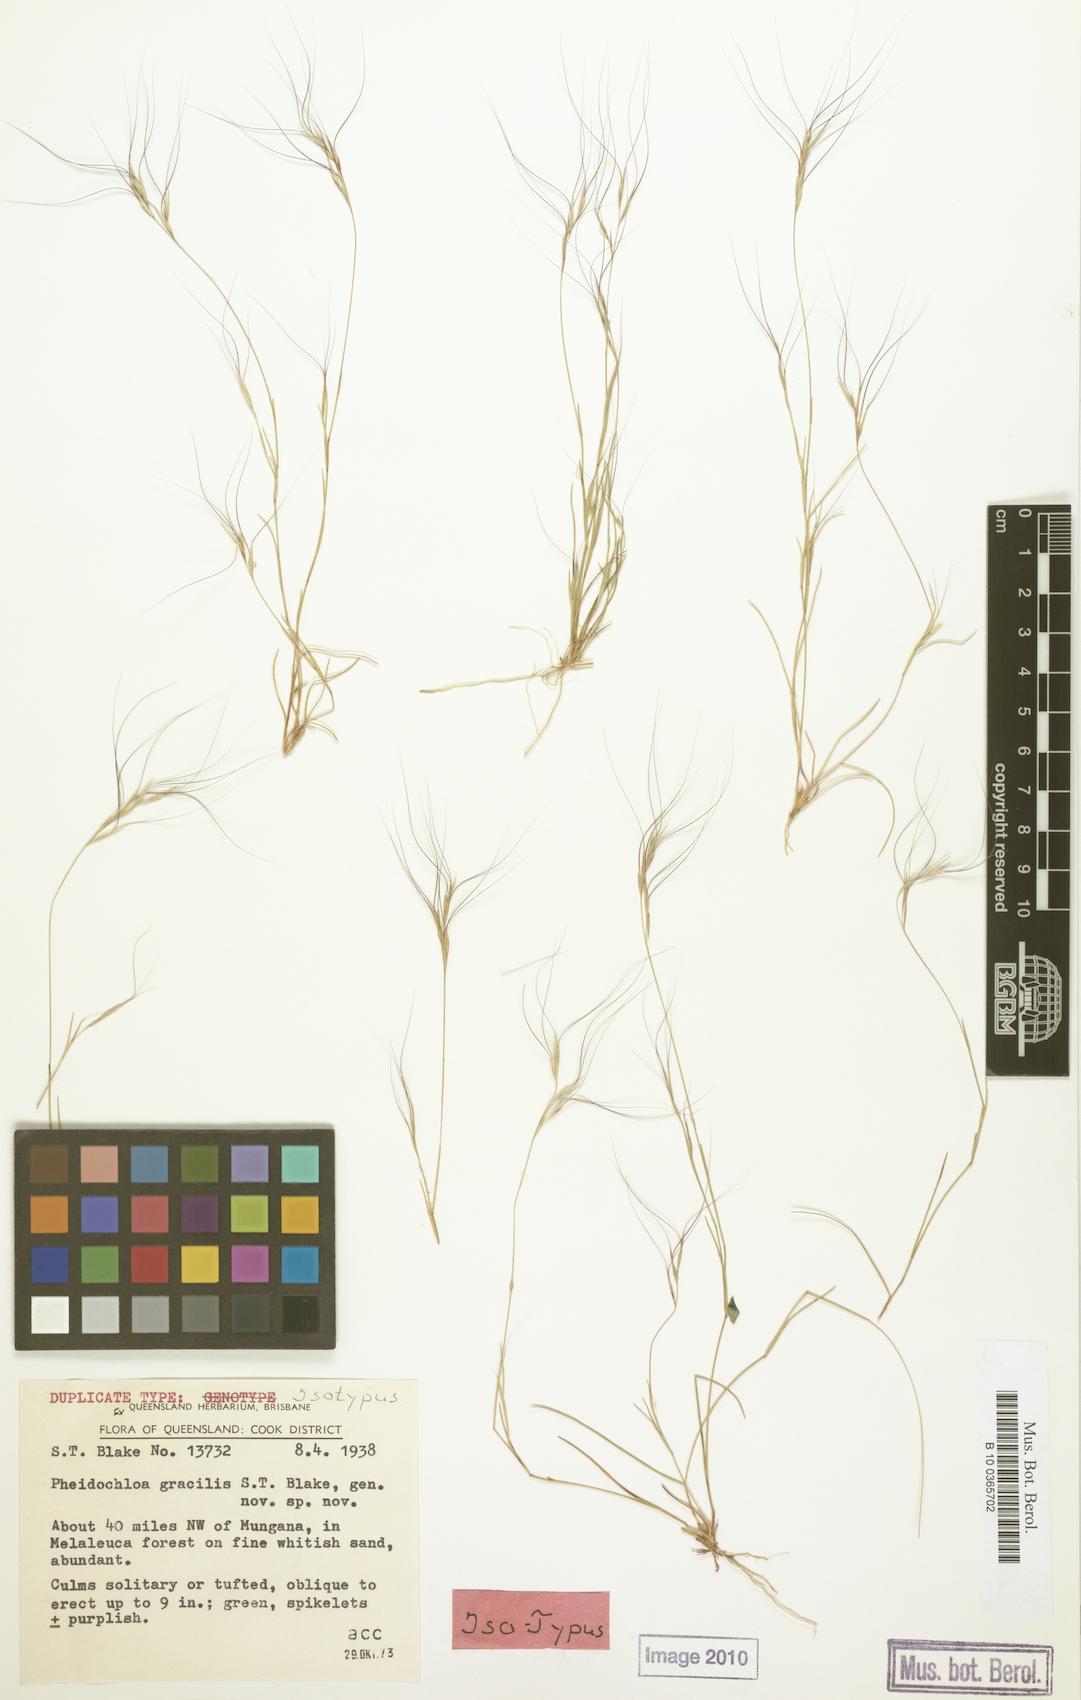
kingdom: Plantae
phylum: Tracheophyta
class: Liliopsida
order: Poales
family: Poaceae
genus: Pheidochloa
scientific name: Pheidochloa gracilis
